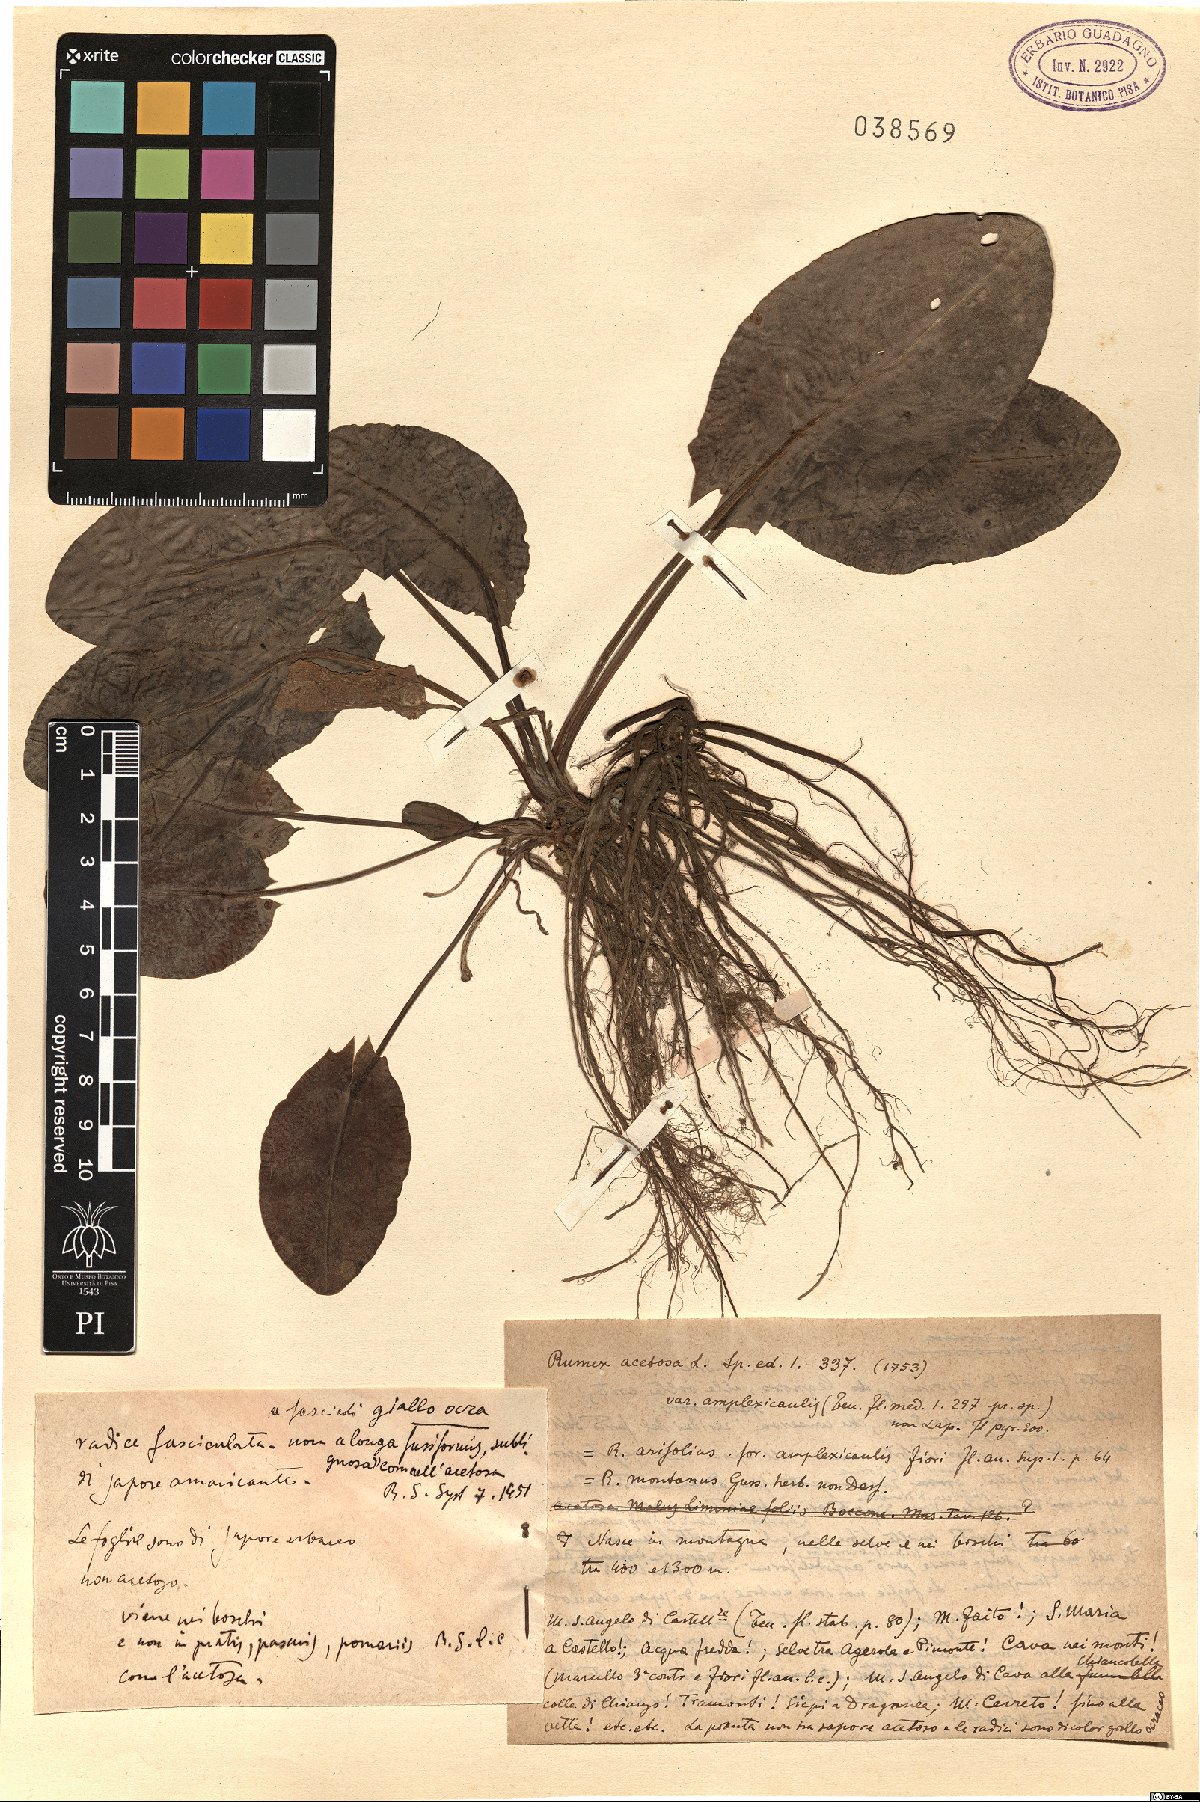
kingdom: Plantae
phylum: Tracheophyta
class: Magnoliopsida
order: Caryophyllales
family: Polygonaceae
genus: Rumex
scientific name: Rumex arifolius
